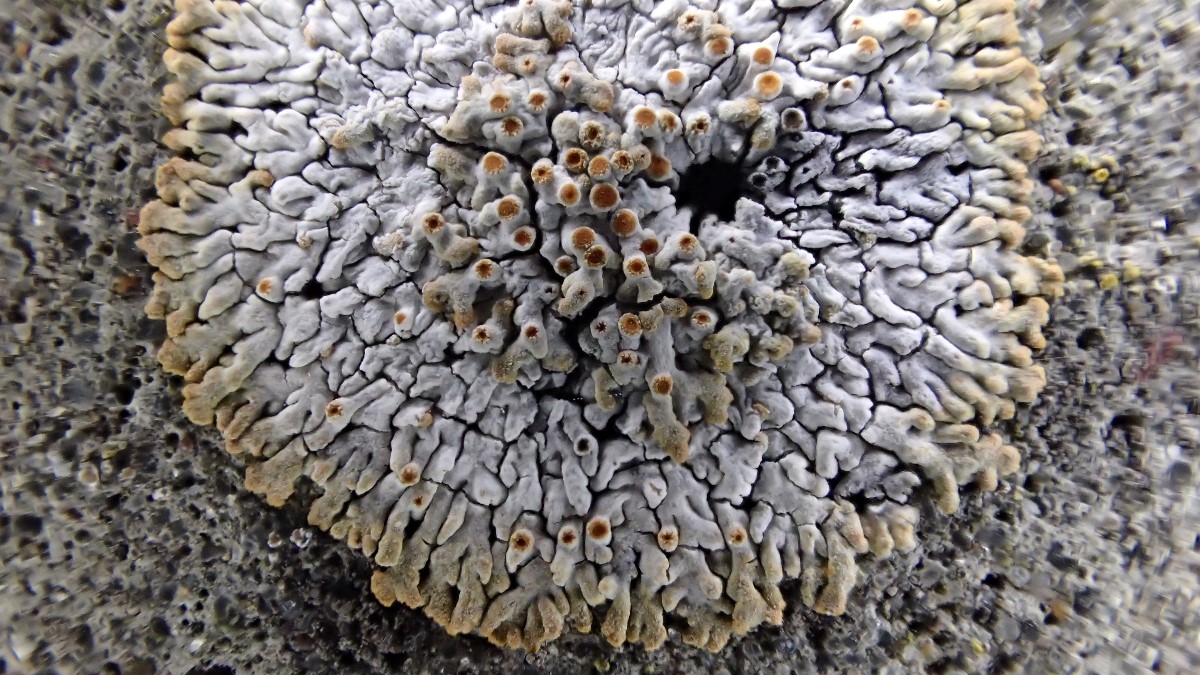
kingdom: Fungi
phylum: Ascomycota
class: Lecanoromycetes
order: Teloschistales
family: Teloschistaceae
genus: Calogaya
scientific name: Calogaya pusilla
